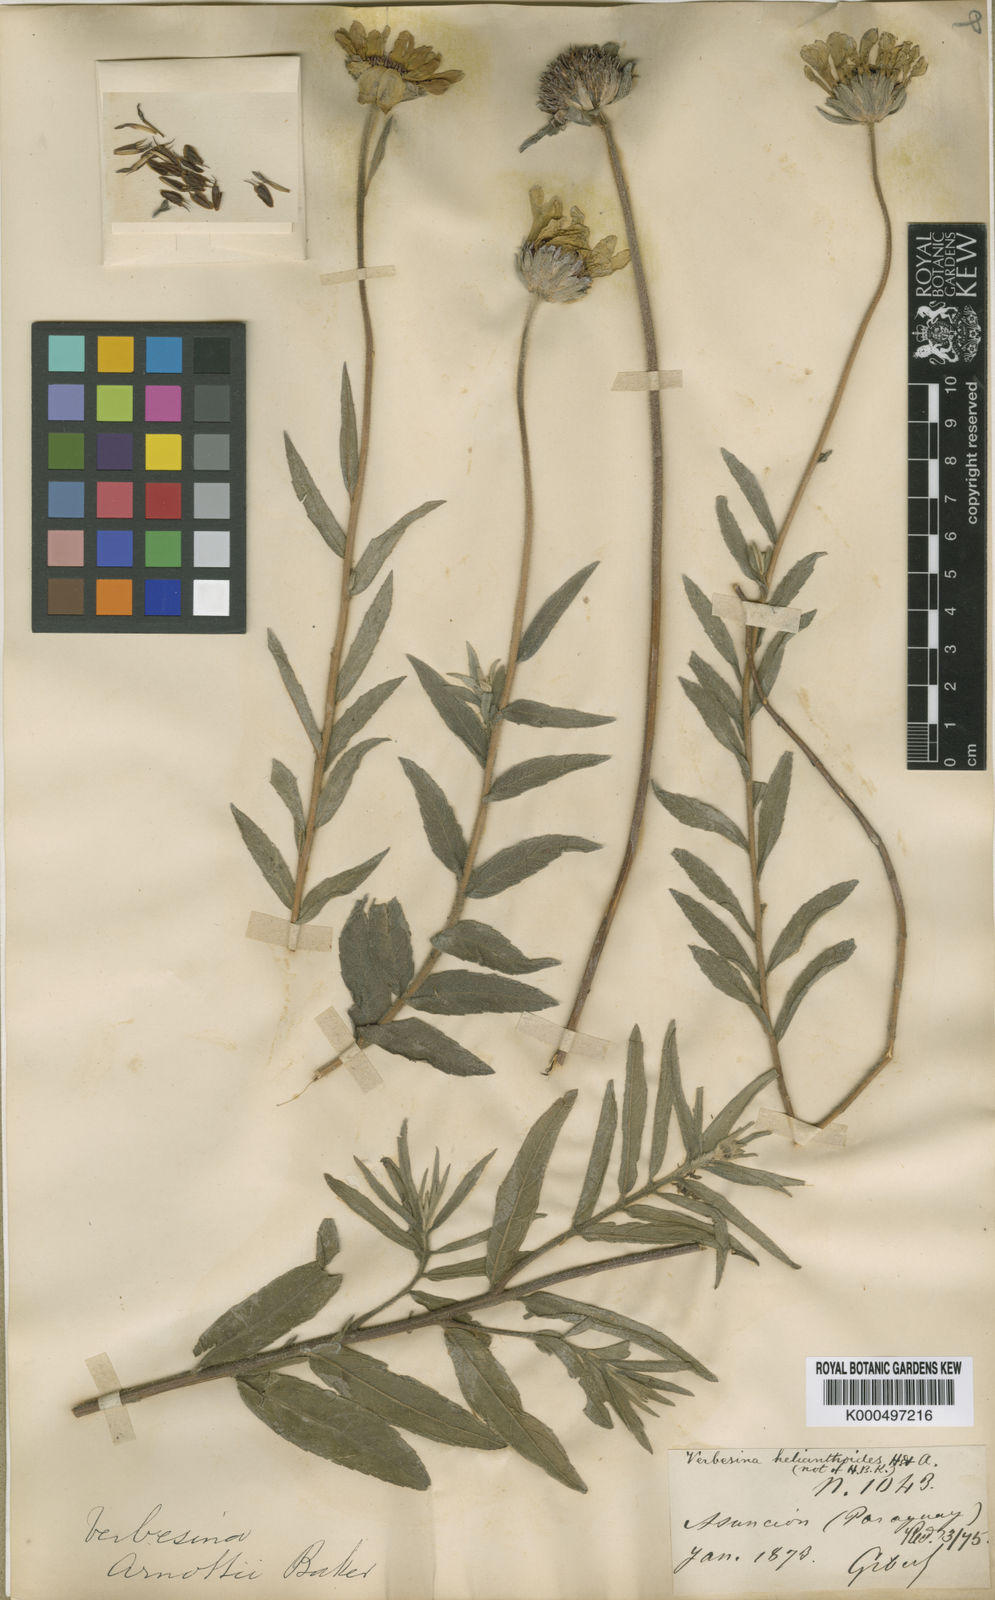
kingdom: Plantae
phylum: Tracheophyta
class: Magnoliopsida
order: Asterales
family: Asteraceae
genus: Dimerostemma
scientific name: Dimerostemma arnottii
